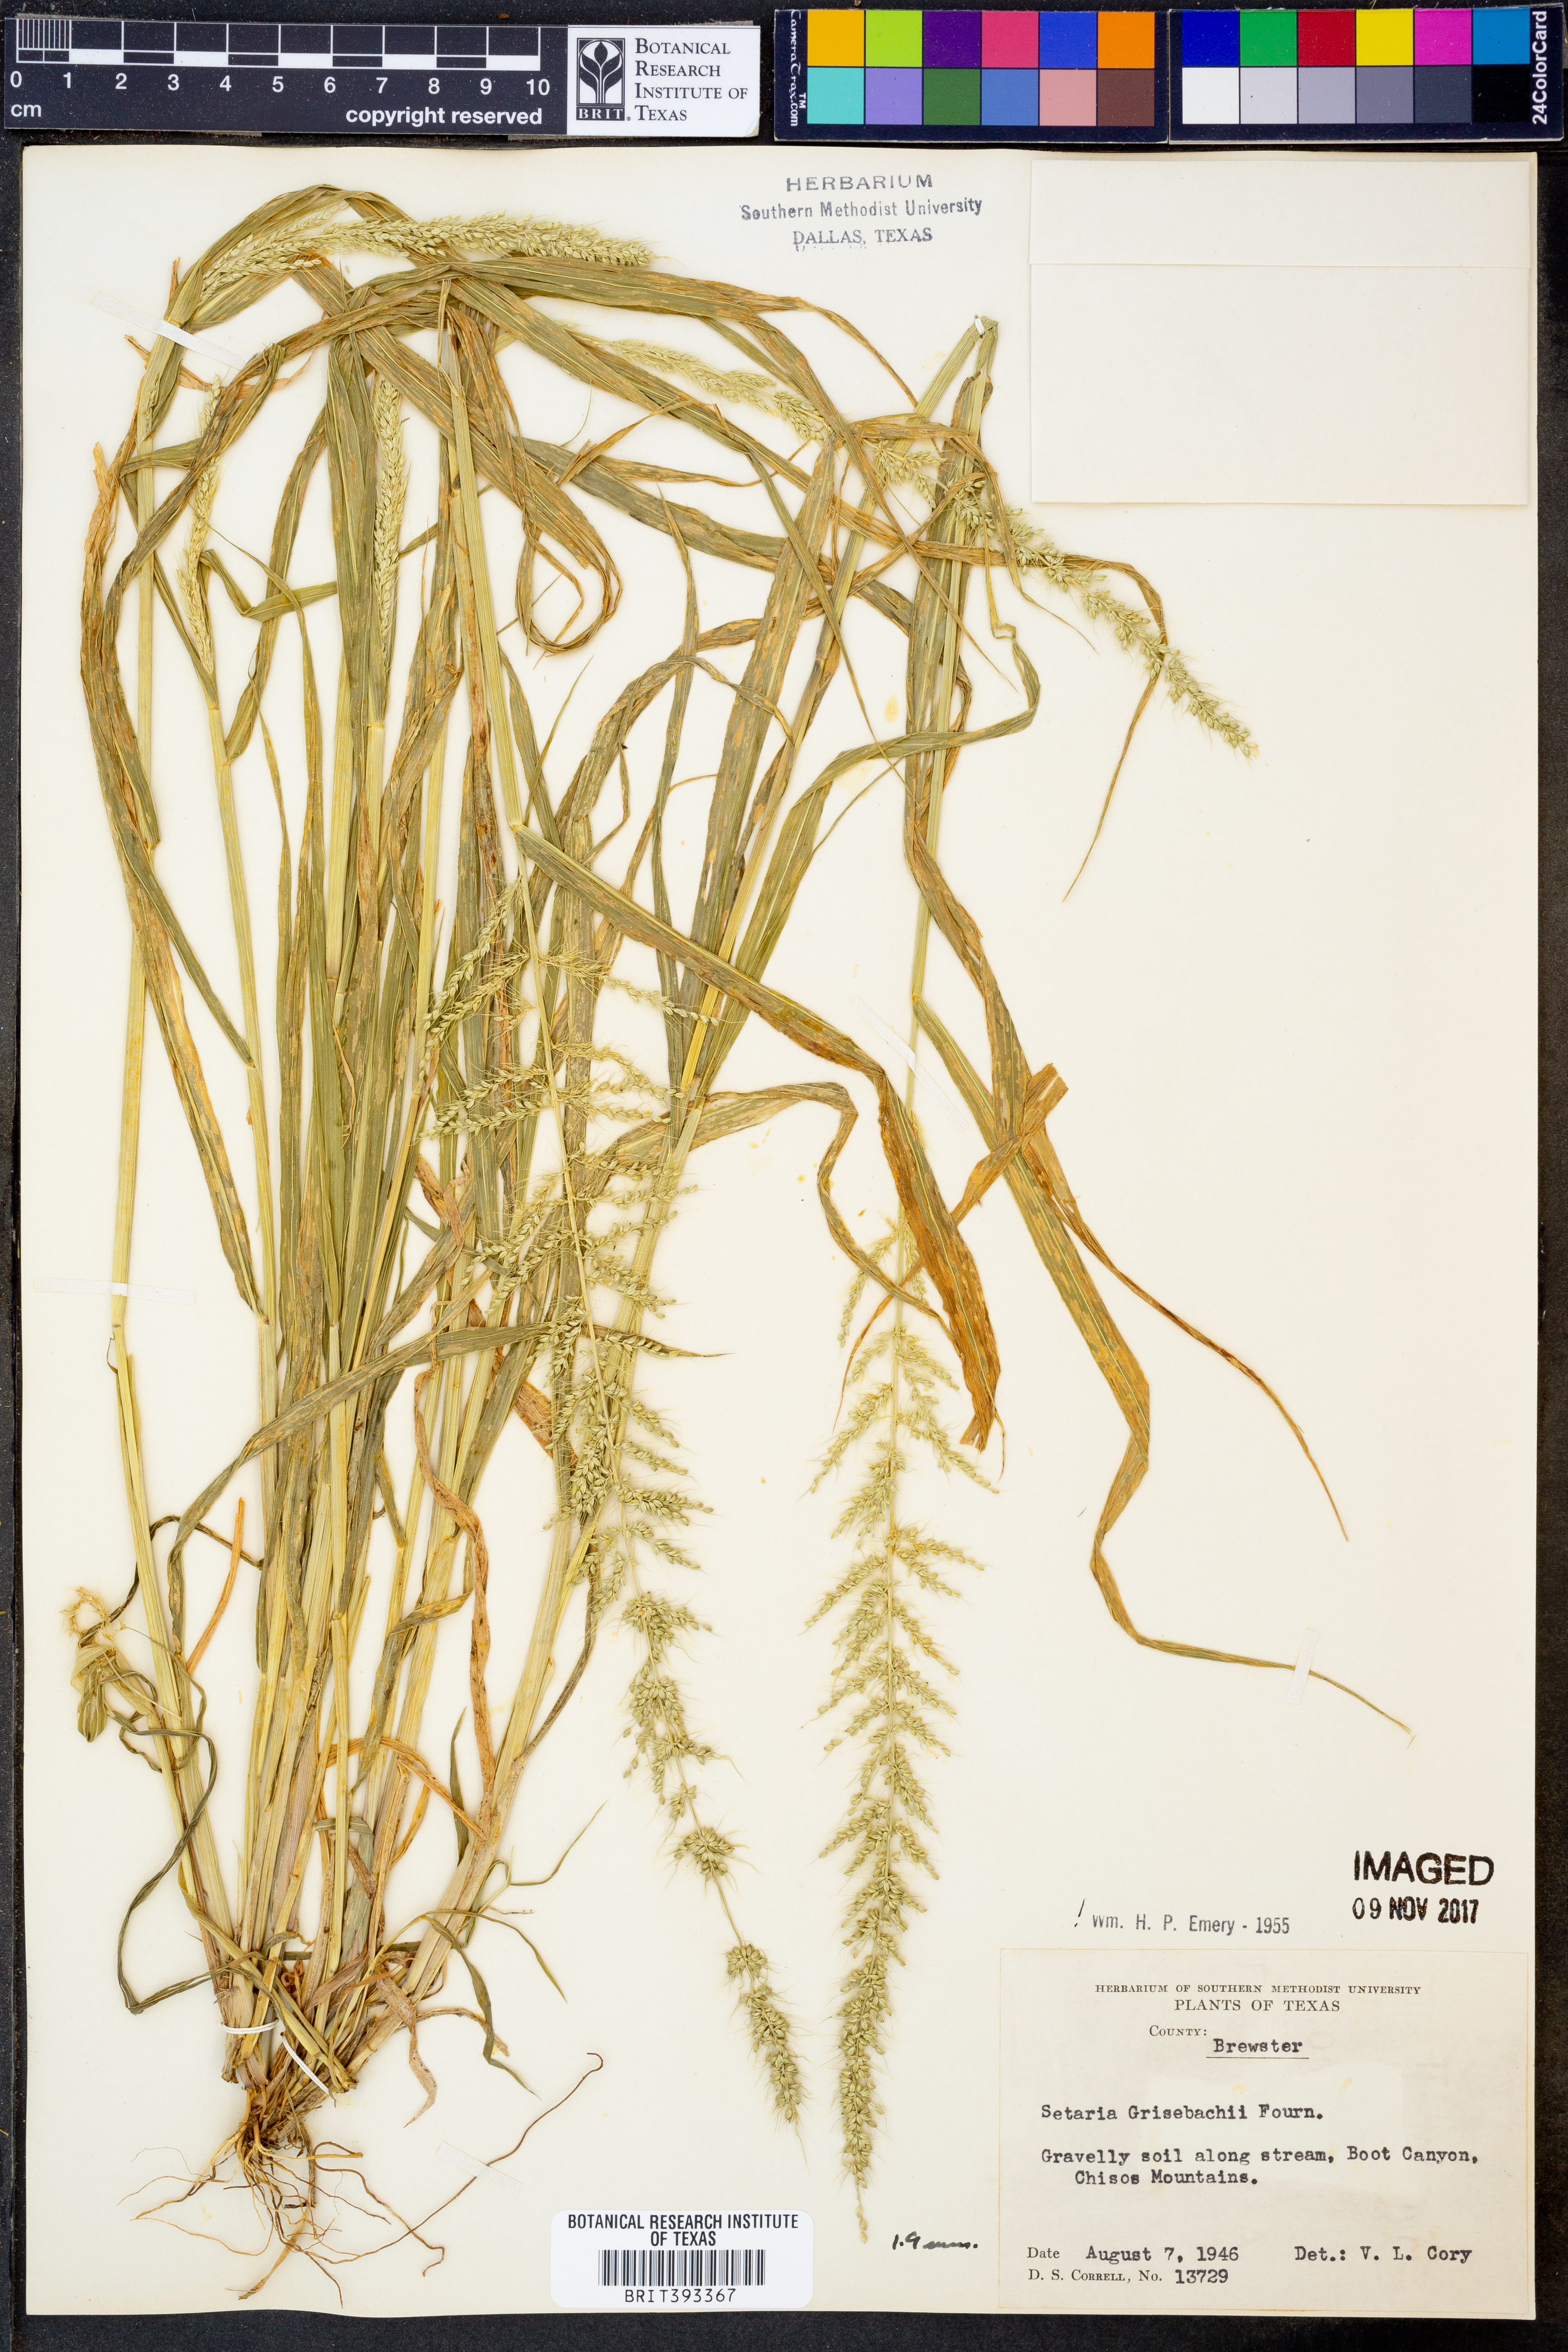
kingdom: Plantae
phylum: Tracheophyta
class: Liliopsida
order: Poales
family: Poaceae
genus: Setaria
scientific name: Setaria grisebachii
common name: Grisebach's bristle grass
